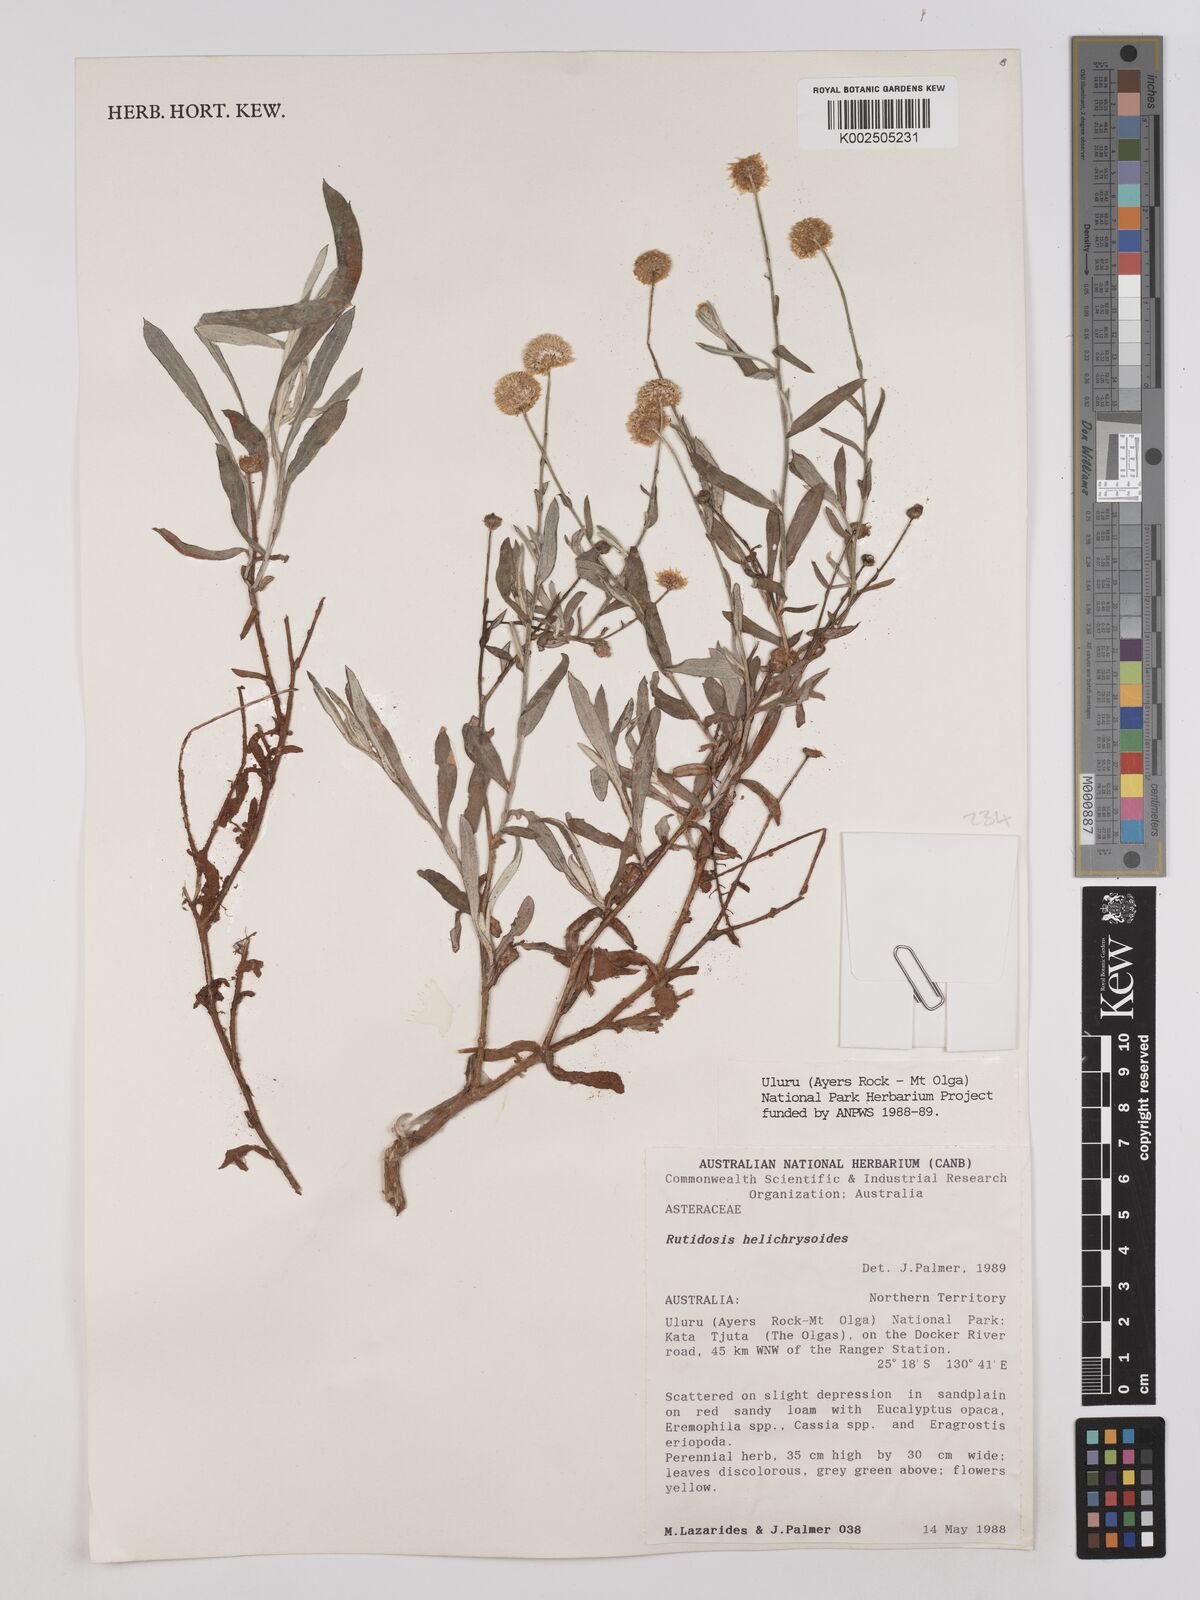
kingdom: Plantae
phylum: Tracheophyta
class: Magnoliopsida
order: Asterales
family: Asteraceae
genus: Rutidosis
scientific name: Rutidosis helichrysoides
